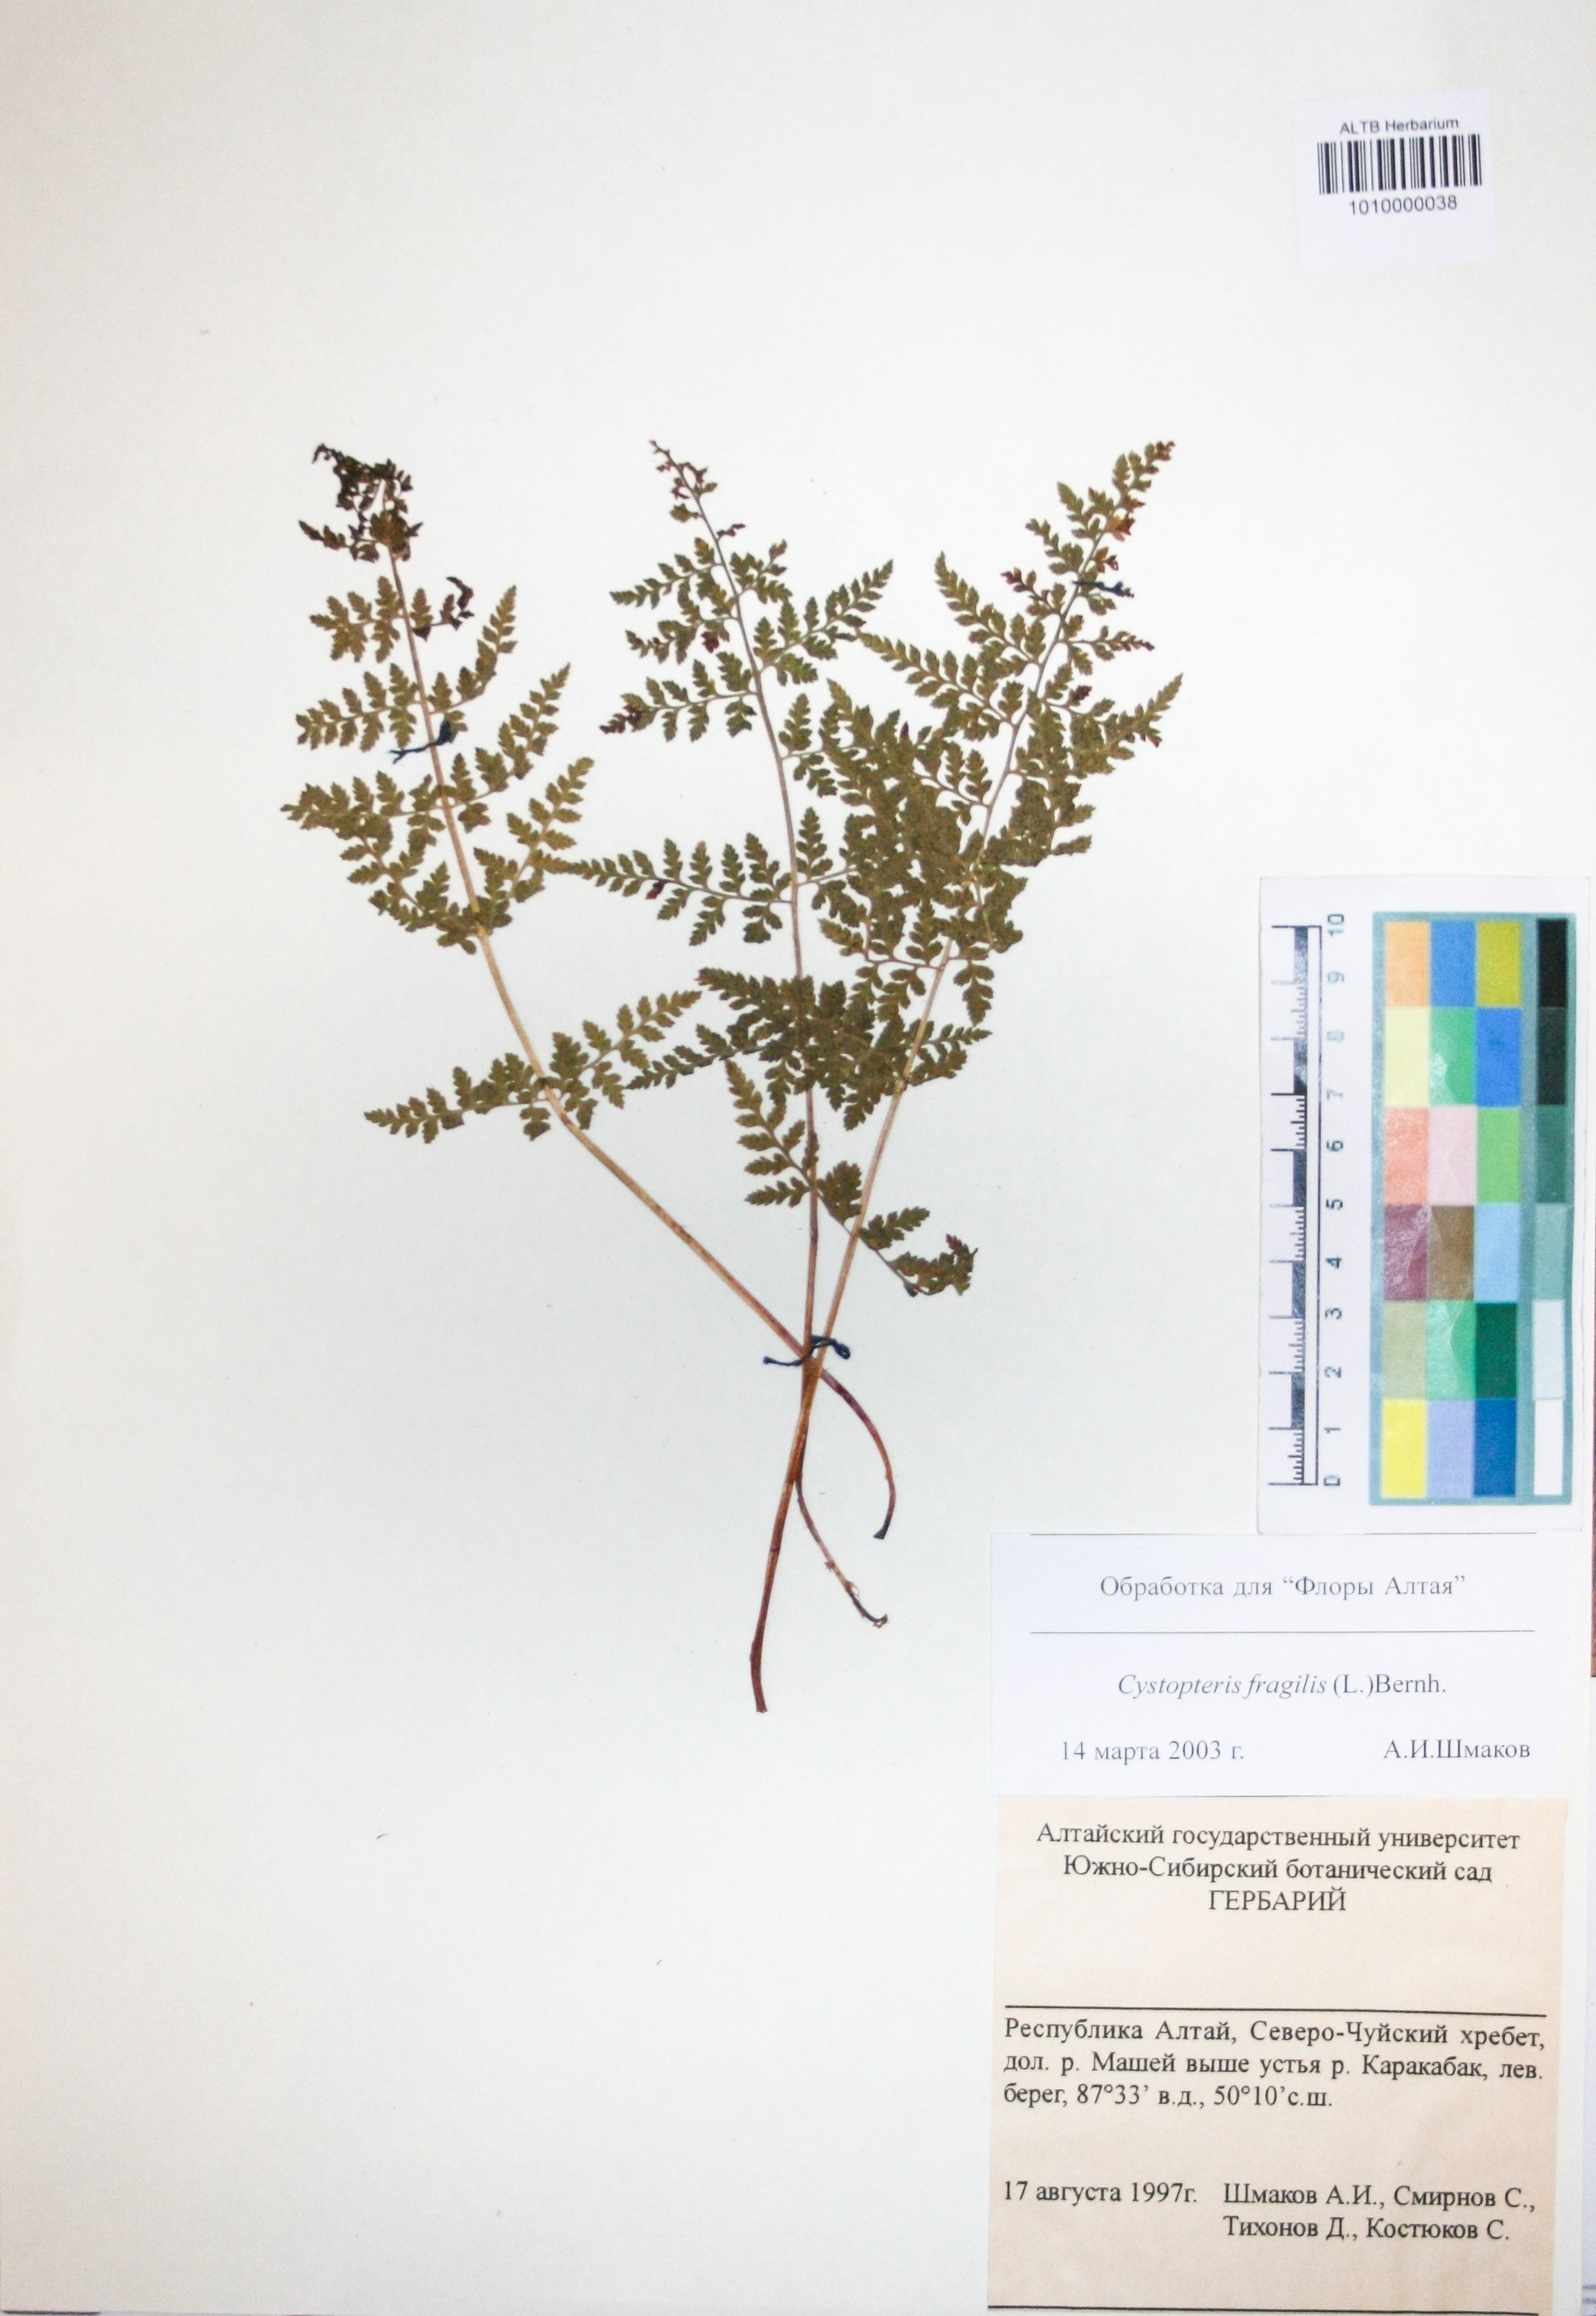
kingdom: Plantae
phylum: Tracheophyta
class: Polypodiopsida
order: Polypodiales
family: Cystopteridaceae
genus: Cystopteris
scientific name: Cystopteris fragilis
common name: Brittle bladder fern
